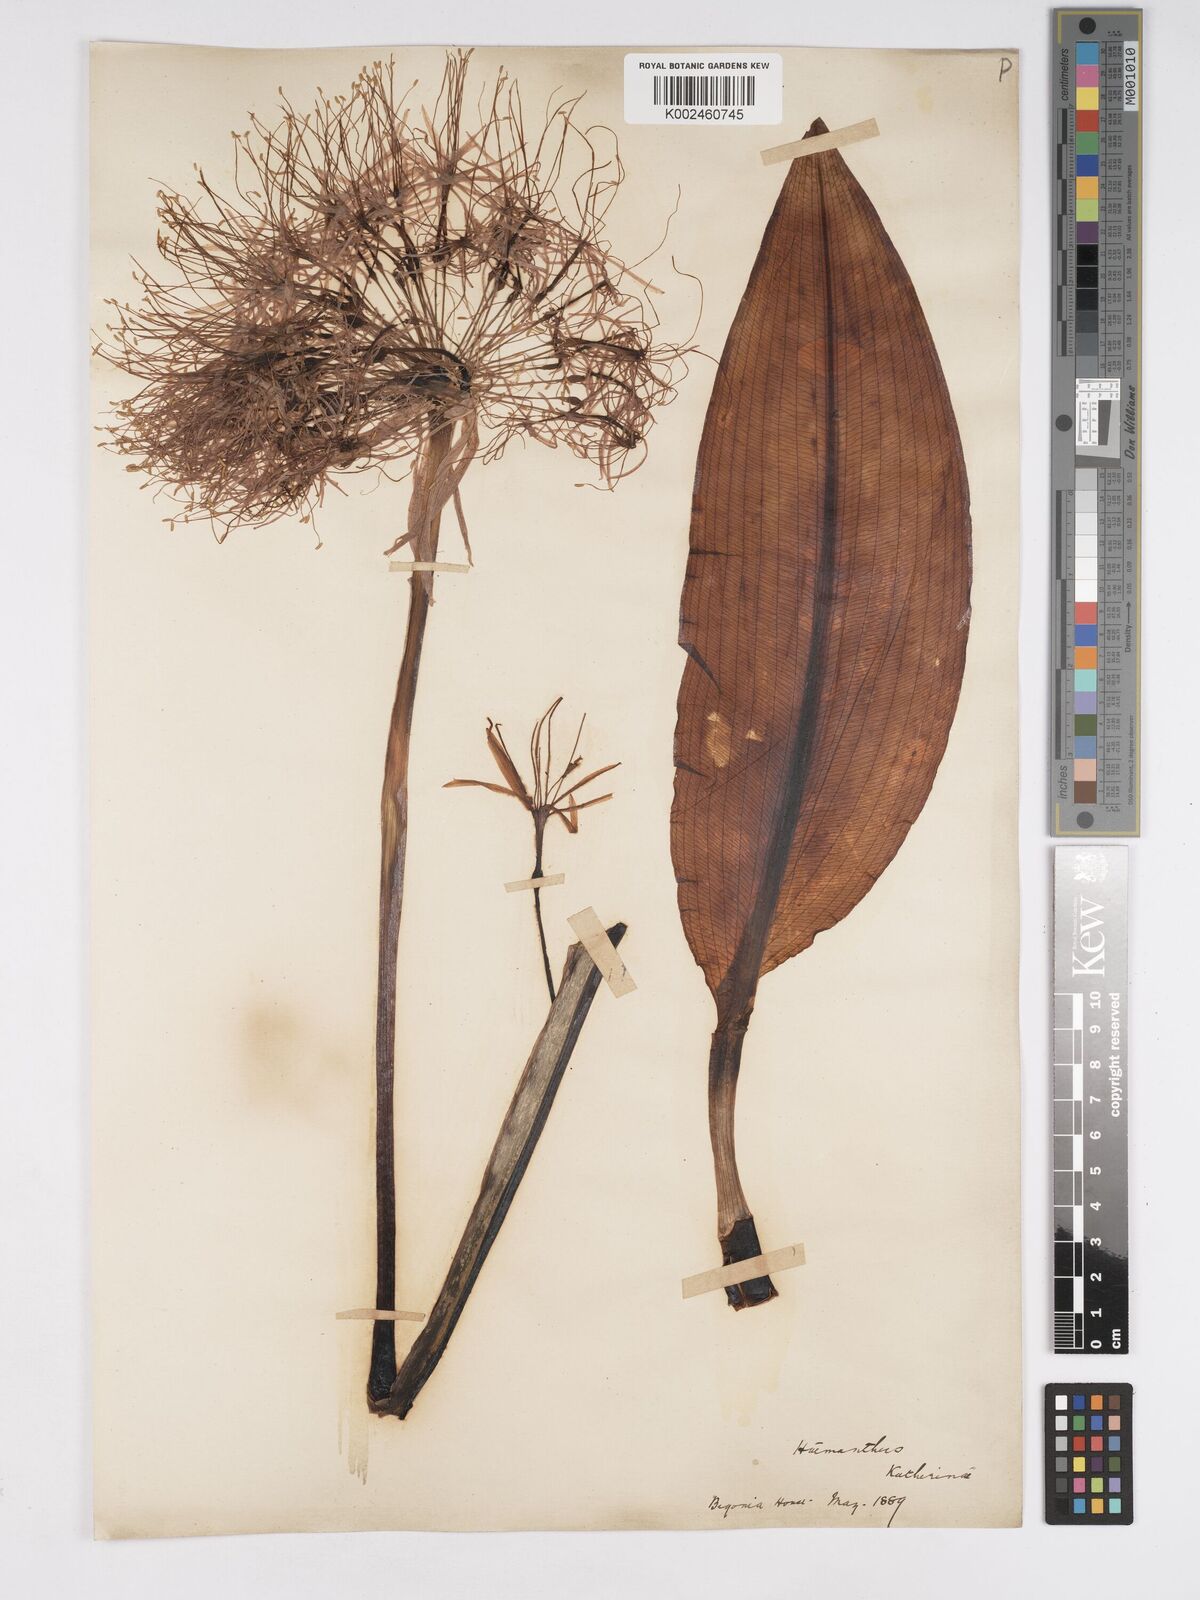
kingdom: Plantae
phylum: Tracheophyta
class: Liliopsida
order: Asparagales
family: Amaryllidaceae
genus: Scadoxus
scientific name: Scadoxus cinnabarinus
